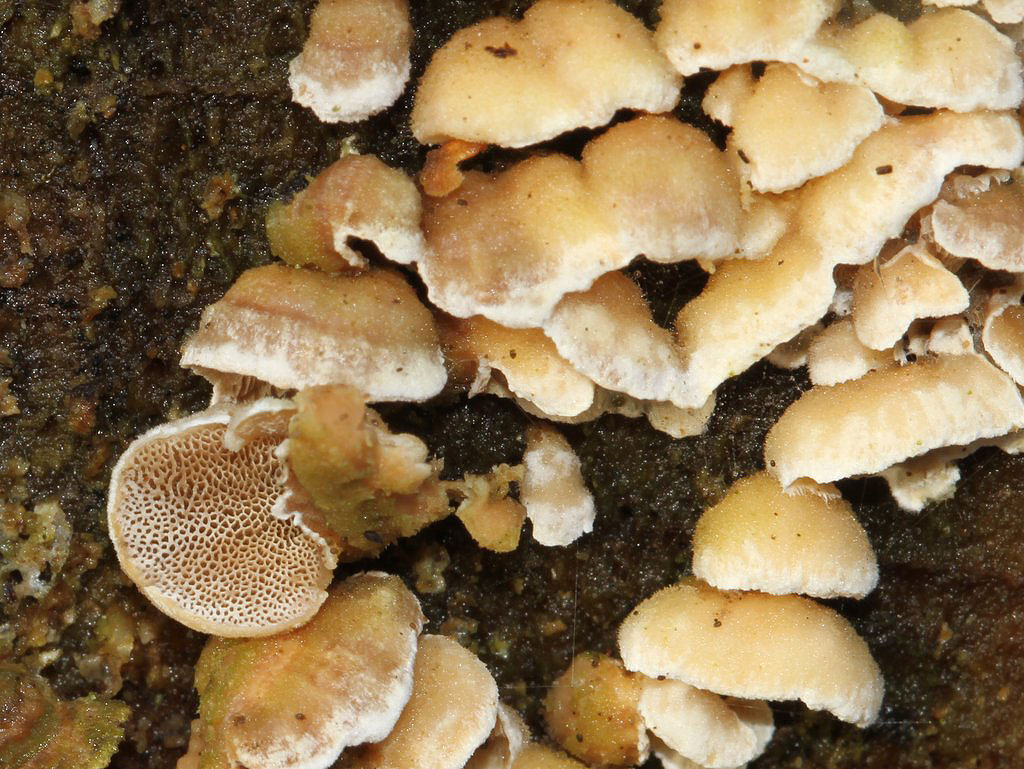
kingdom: Fungi
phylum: Basidiomycota
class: Agaricomycetes
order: Polyporales
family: Incrustoporiaceae
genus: Skeletocutis
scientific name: Skeletocutis carneogrisea
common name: rødgrå krystalporesvamp
